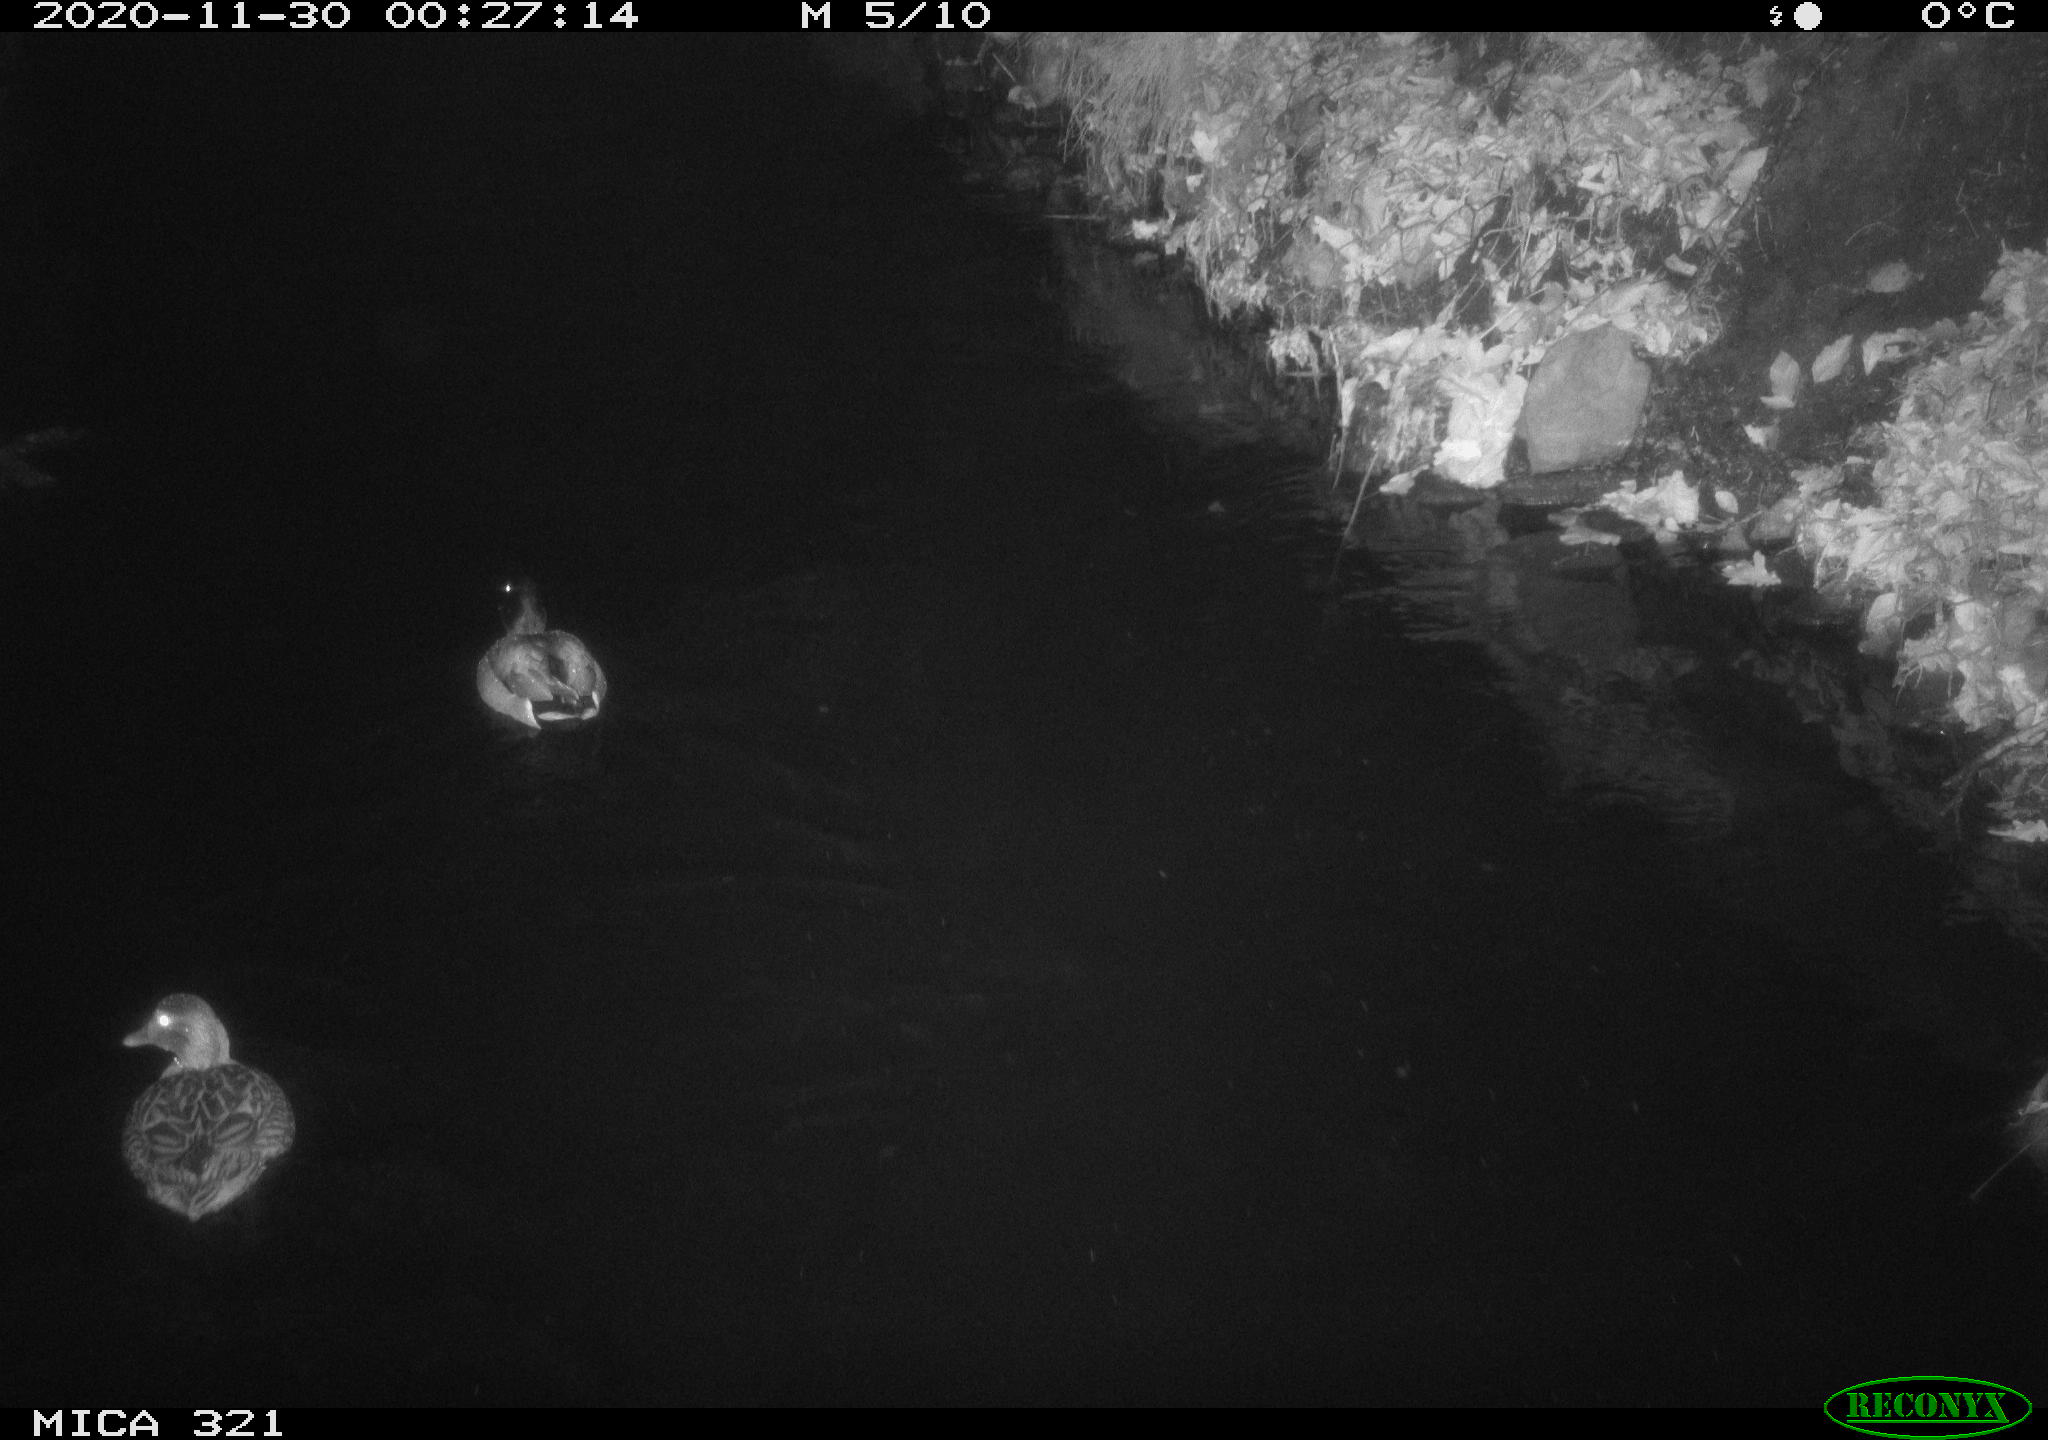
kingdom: Animalia
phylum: Chordata
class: Aves
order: Anseriformes
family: Anatidae
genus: Anas
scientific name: Anas platyrhynchos
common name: Mallard
